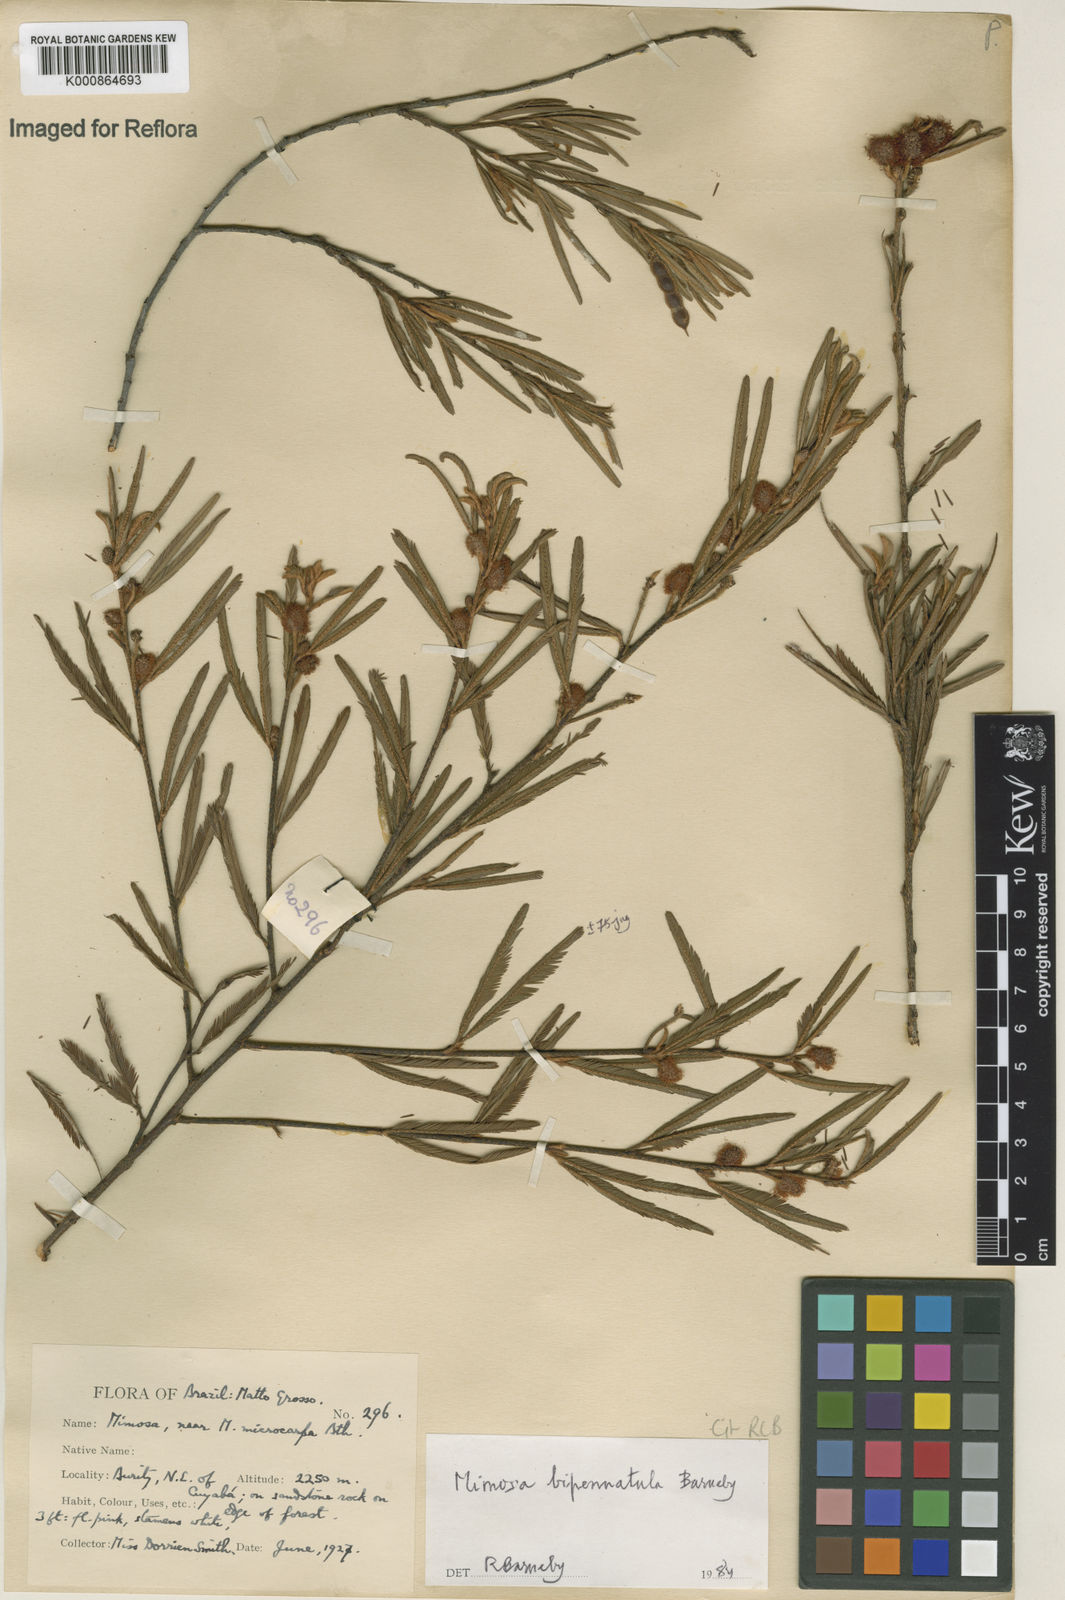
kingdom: Plantae
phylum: Tracheophyta
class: Magnoliopsida
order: Fabales
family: Fabaceae
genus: Mimosa
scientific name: Mimosa
